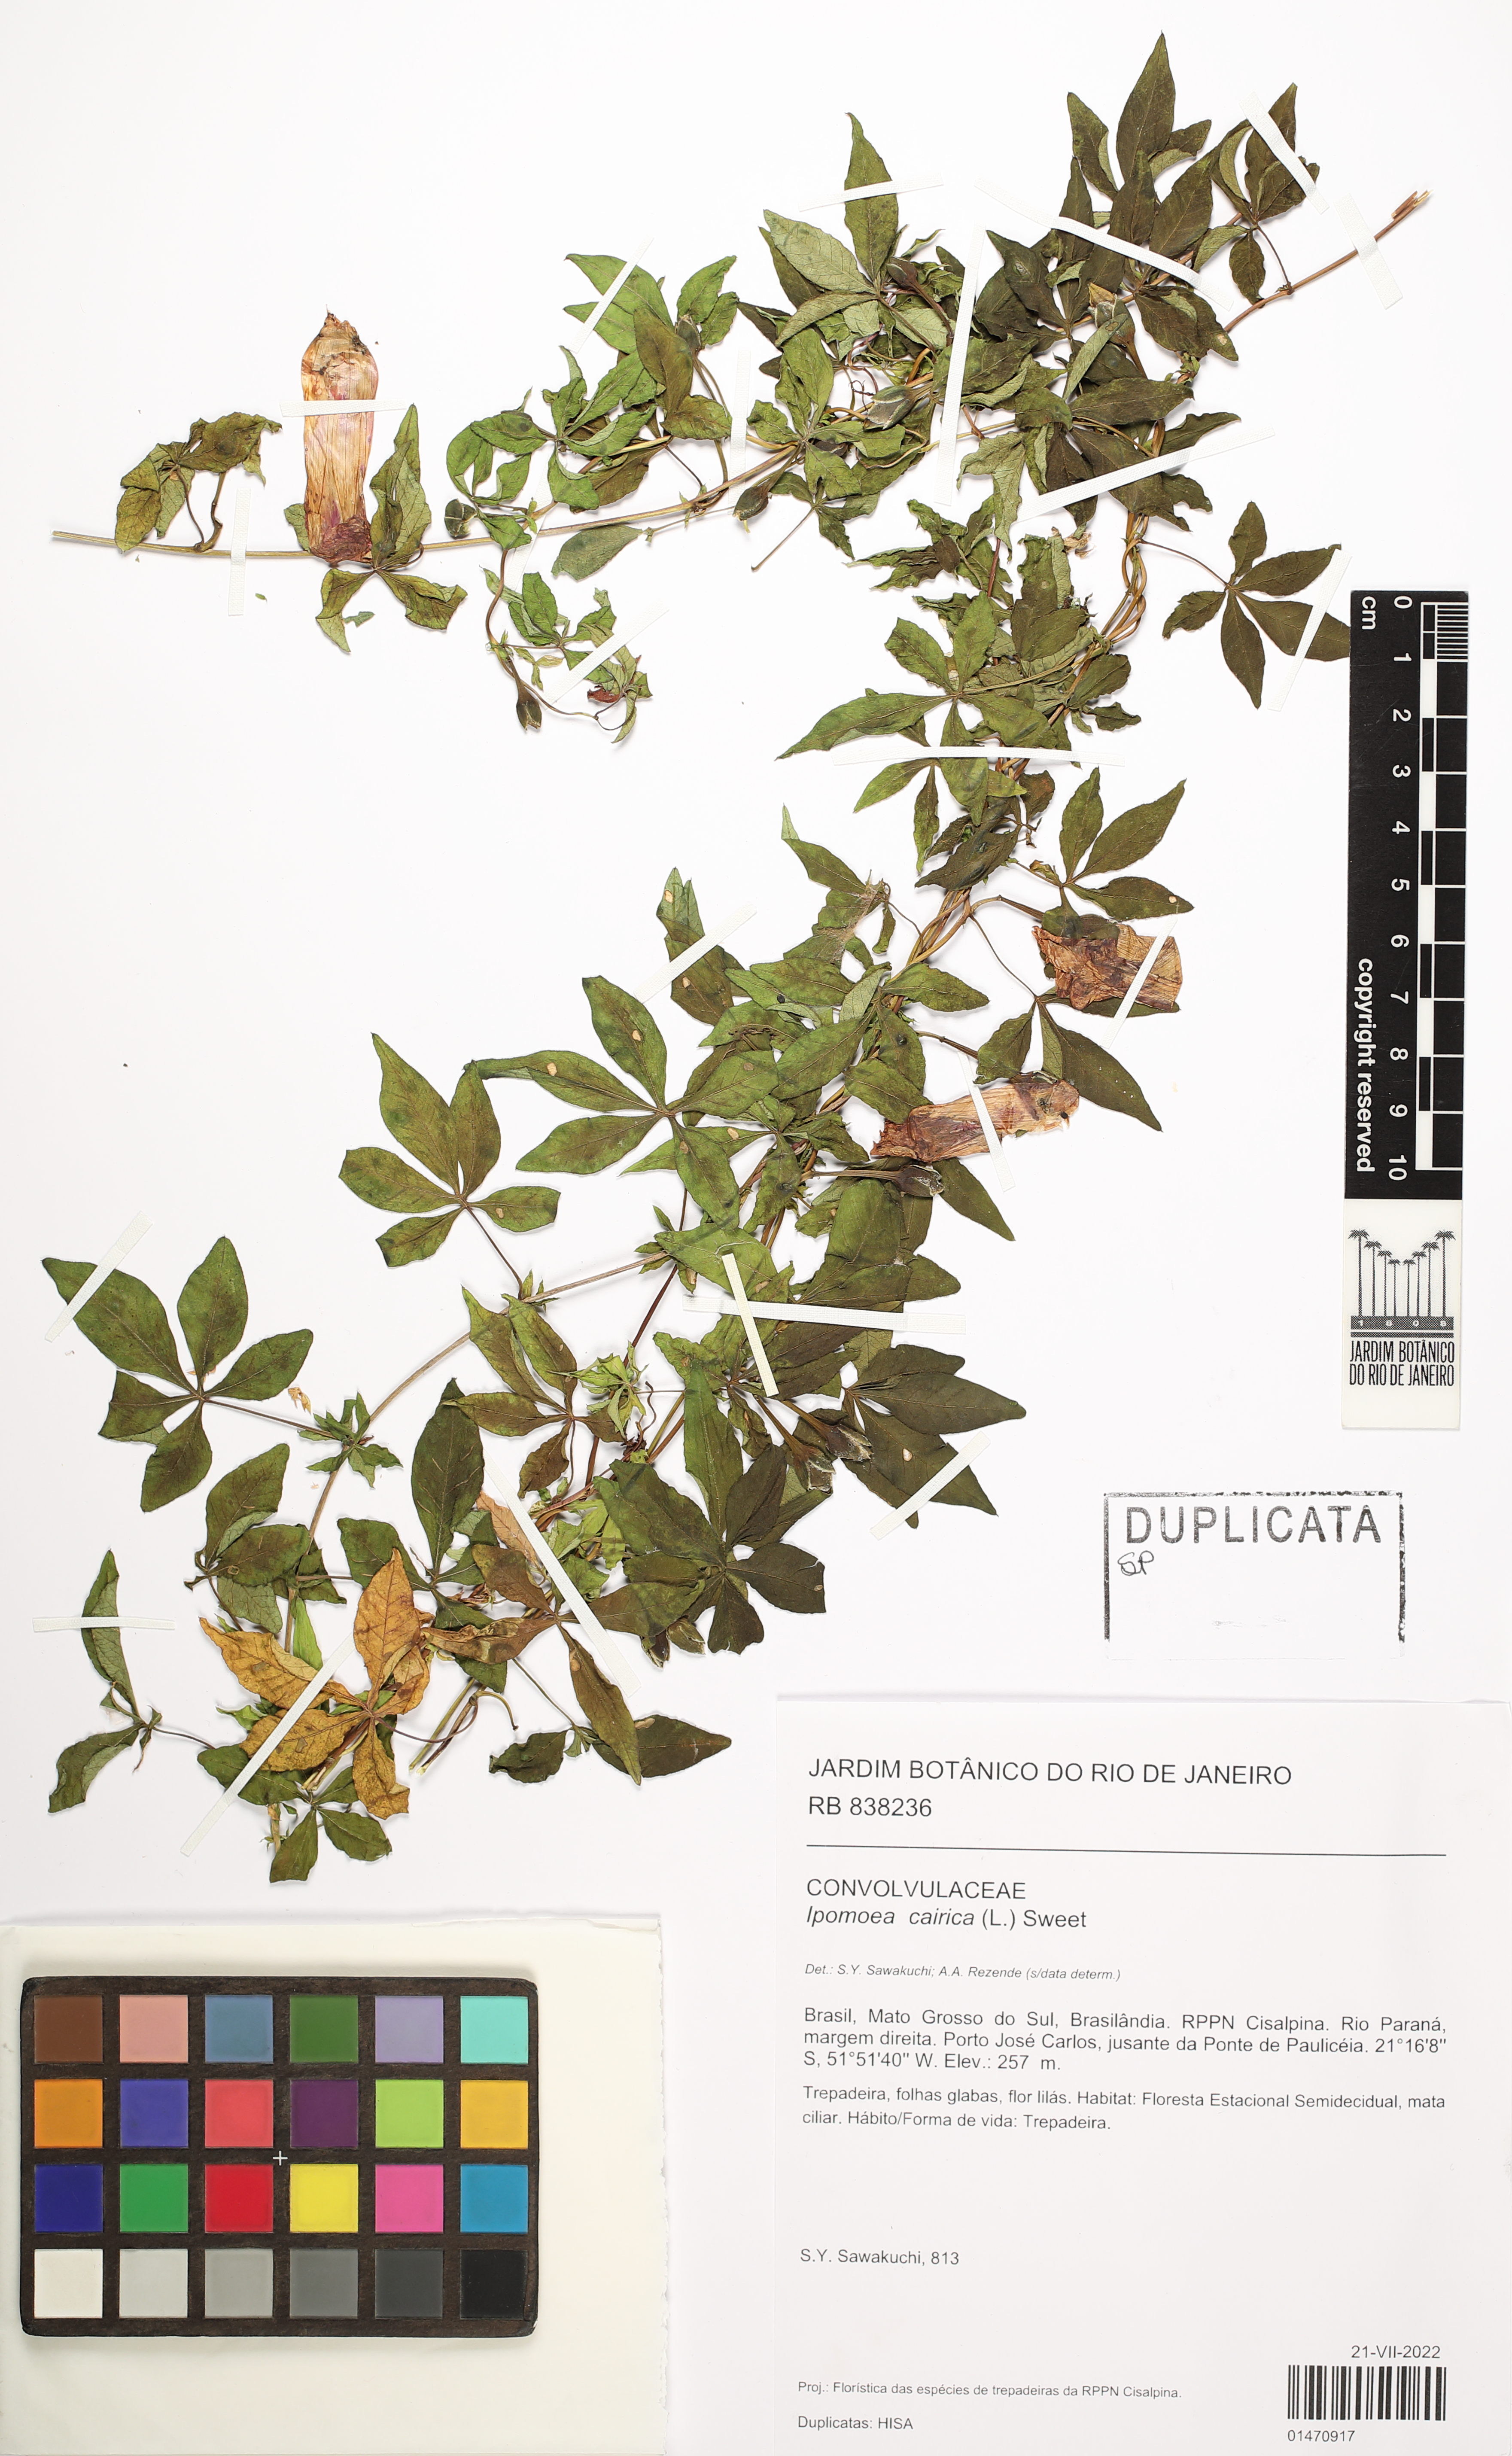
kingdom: Plantae
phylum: Tracheophyta
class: Magnoliopsida
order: Solanales
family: Convolvulaceae
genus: Ipomoea
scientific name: Ipomoea cairica
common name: Mile a minute vine
